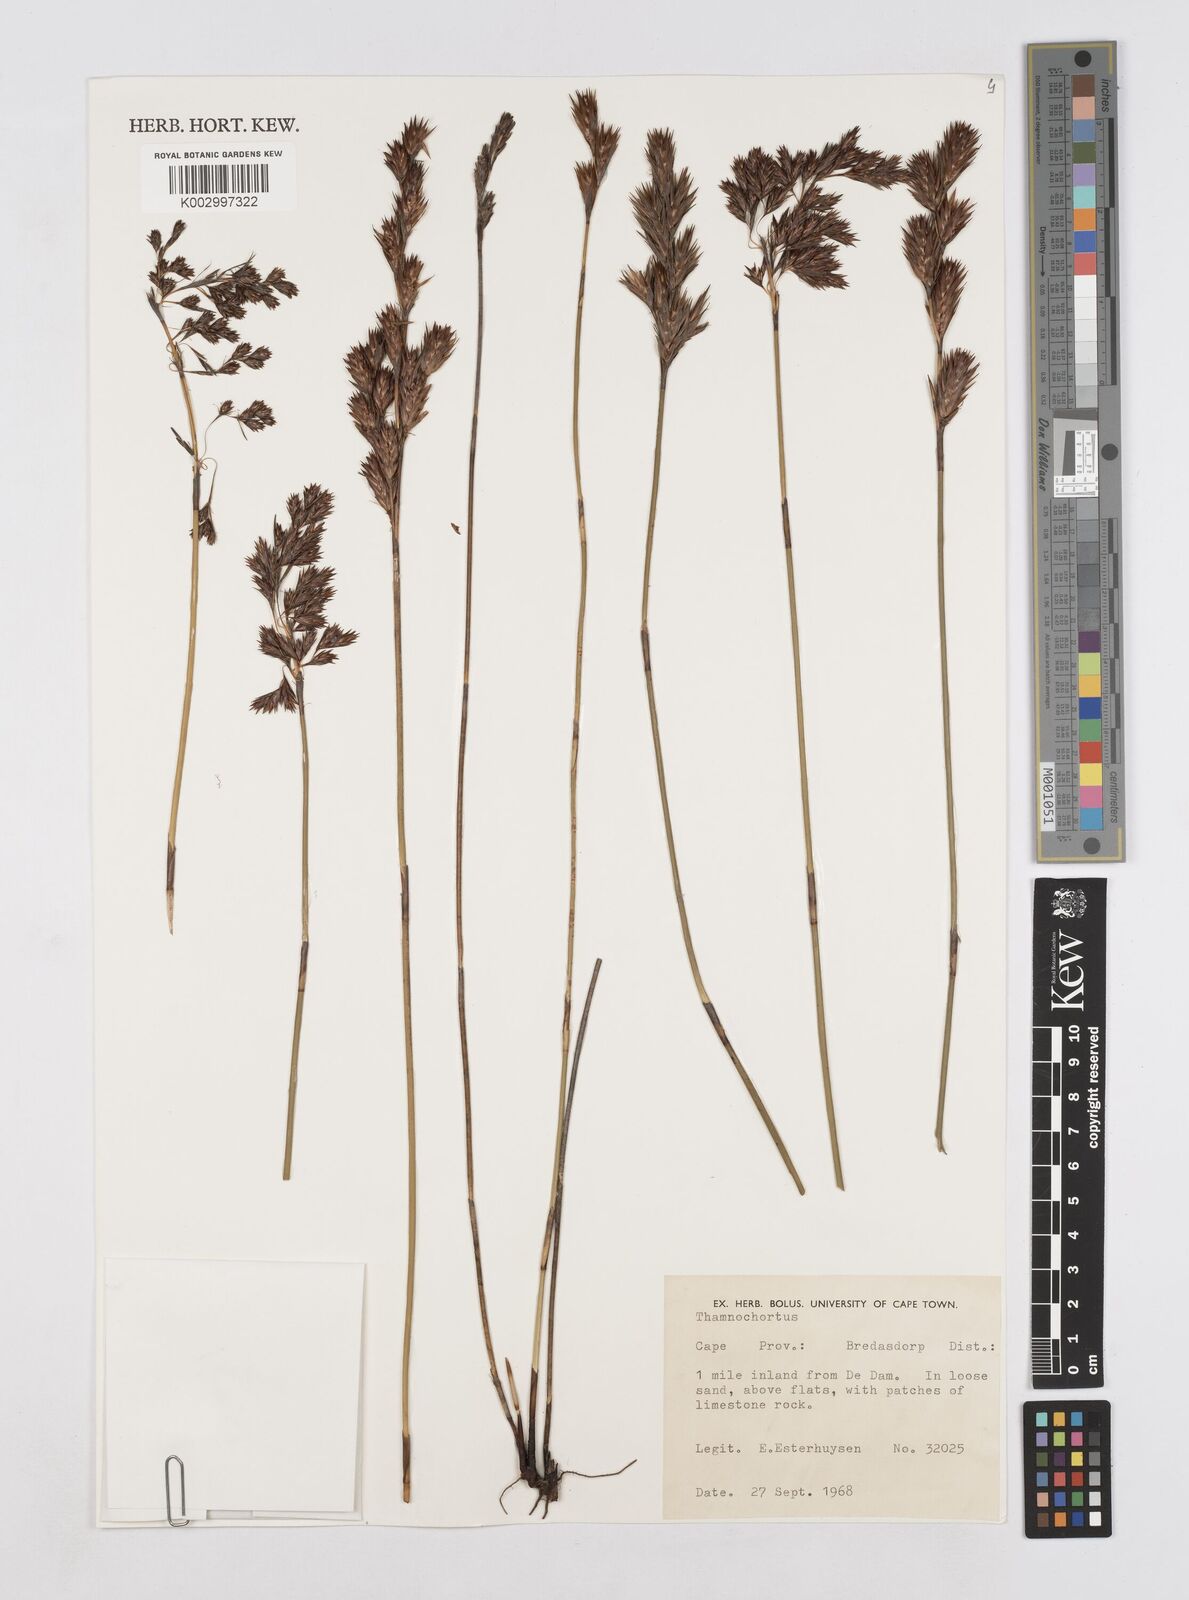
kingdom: Plantae
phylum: Tracheophyta
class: Liliopsida
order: Poales
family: Restionaceae
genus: Thamnochortus
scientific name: Thamnochortus
